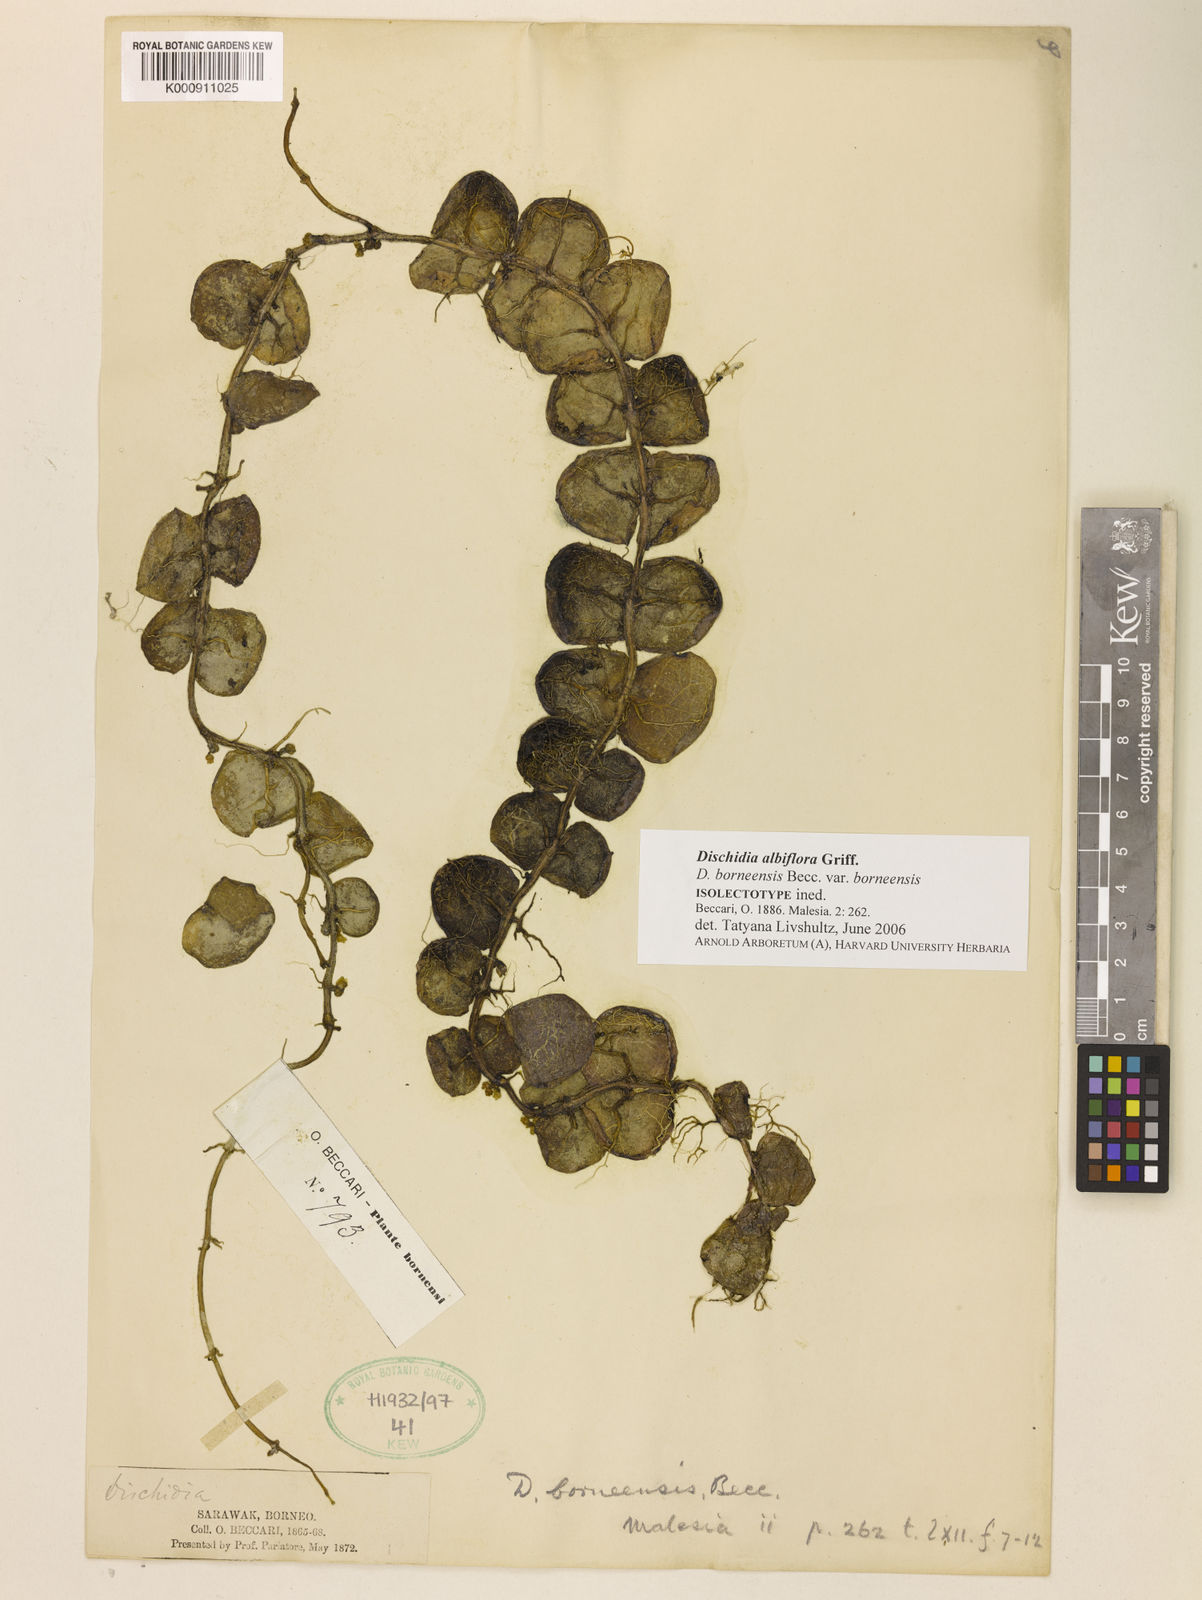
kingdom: Plantae
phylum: Tracheophyta
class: Magnoliopsida
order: Gentianales
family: Apocynaceae
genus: Dischidia
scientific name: Dischidia albiflora
